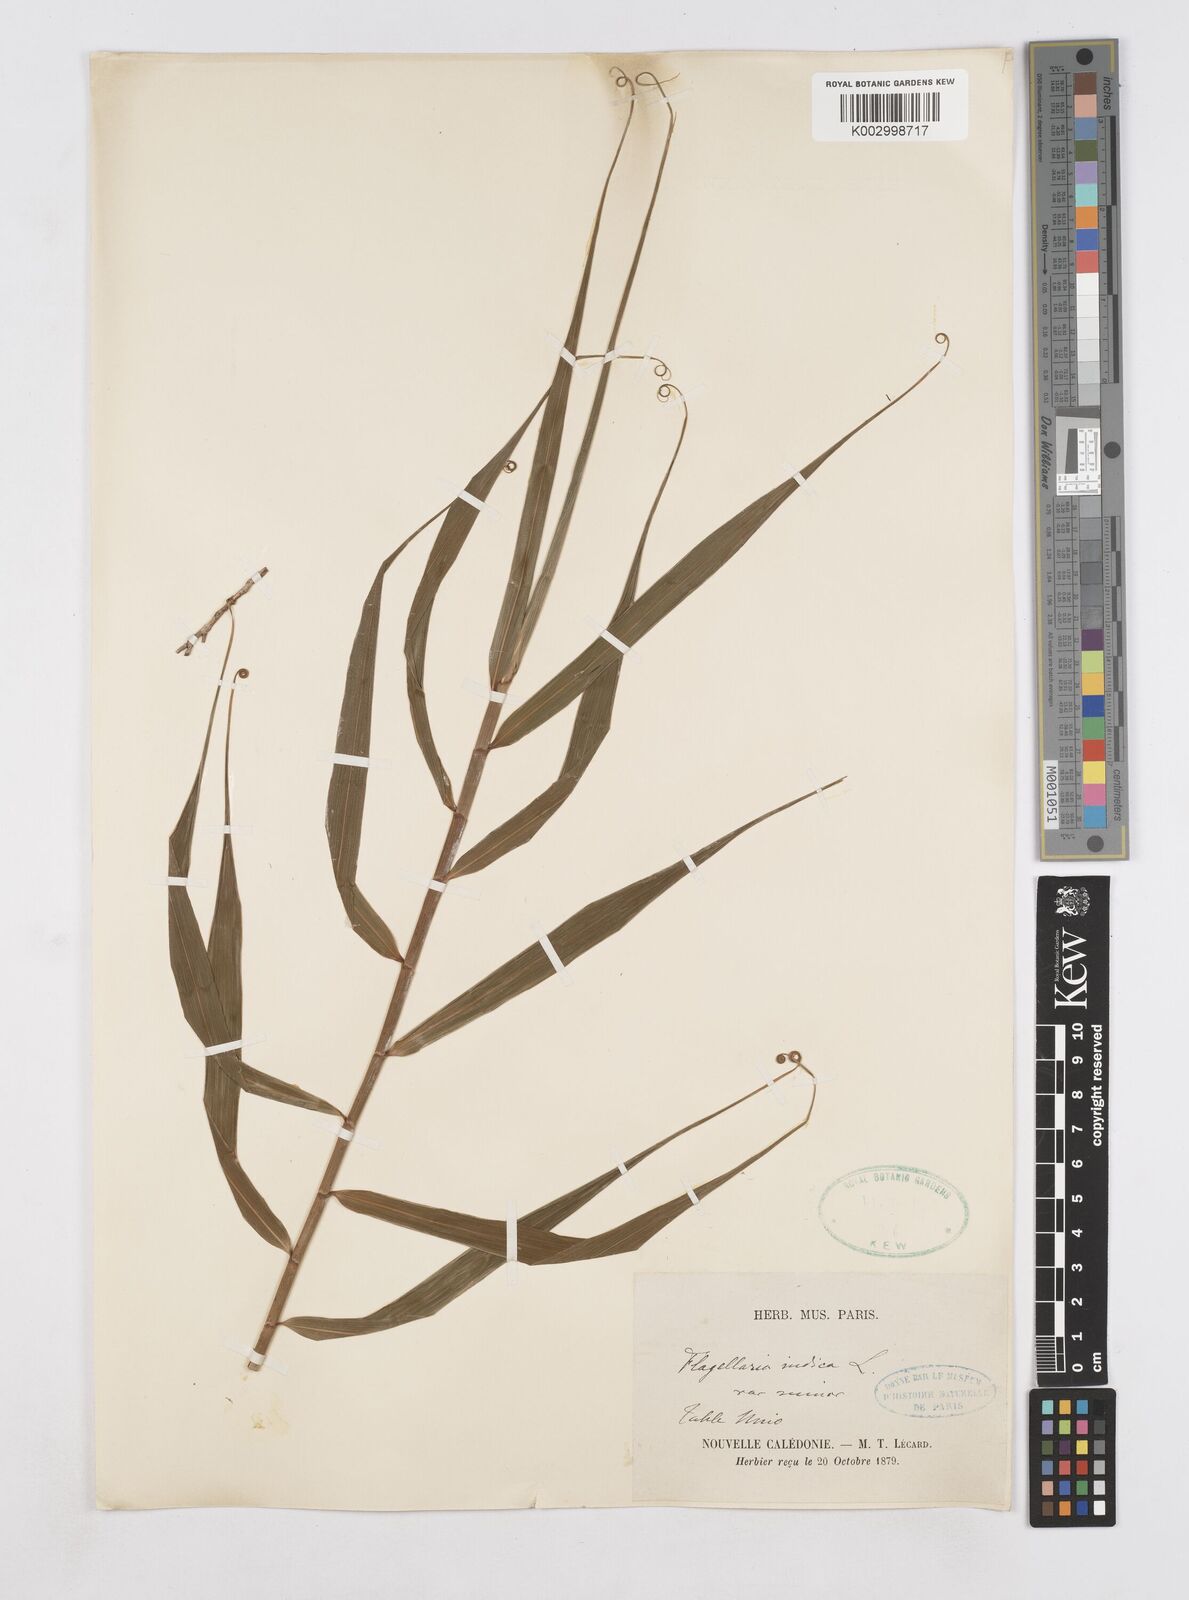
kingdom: Plantae
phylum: Tracheophyta
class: Liliopsida
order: Poales
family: Flagellariaceae
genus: Flagellaria
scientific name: Flagellaria indica
